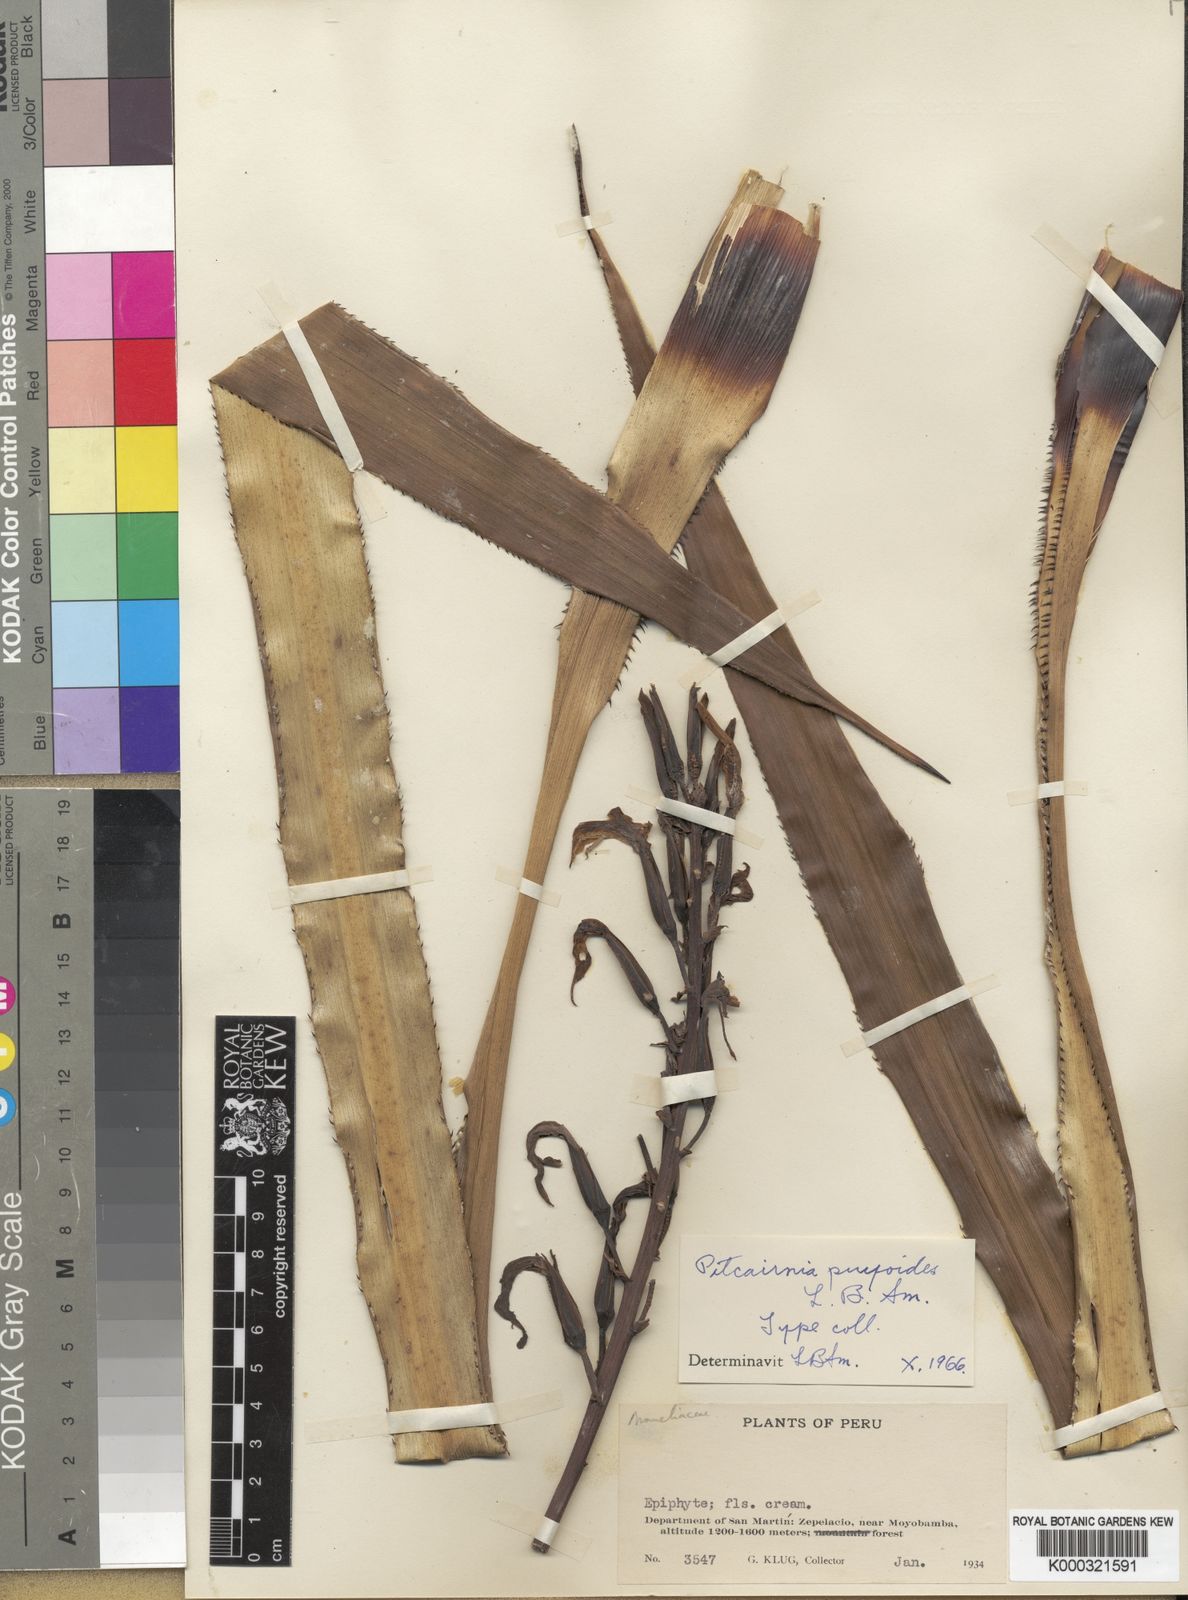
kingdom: Plantae
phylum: Tracheophyta
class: Liliopsida
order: Poales
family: Bromeliaceae
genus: Pitcairnia
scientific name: Pitcairnia puyoides
